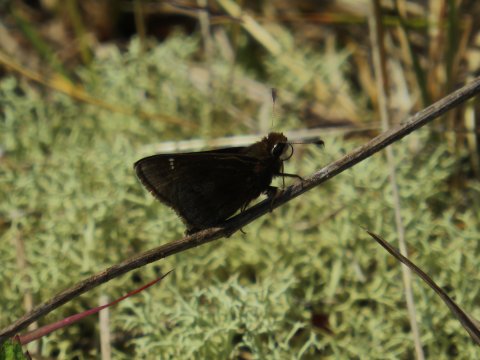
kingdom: Animalia
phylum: Arthropoda
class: Insecta
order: Lepidoptera
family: Hesperiidae
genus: Atrytonopsis
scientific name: Atrytonopsis hianna
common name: Dusted Skipper
